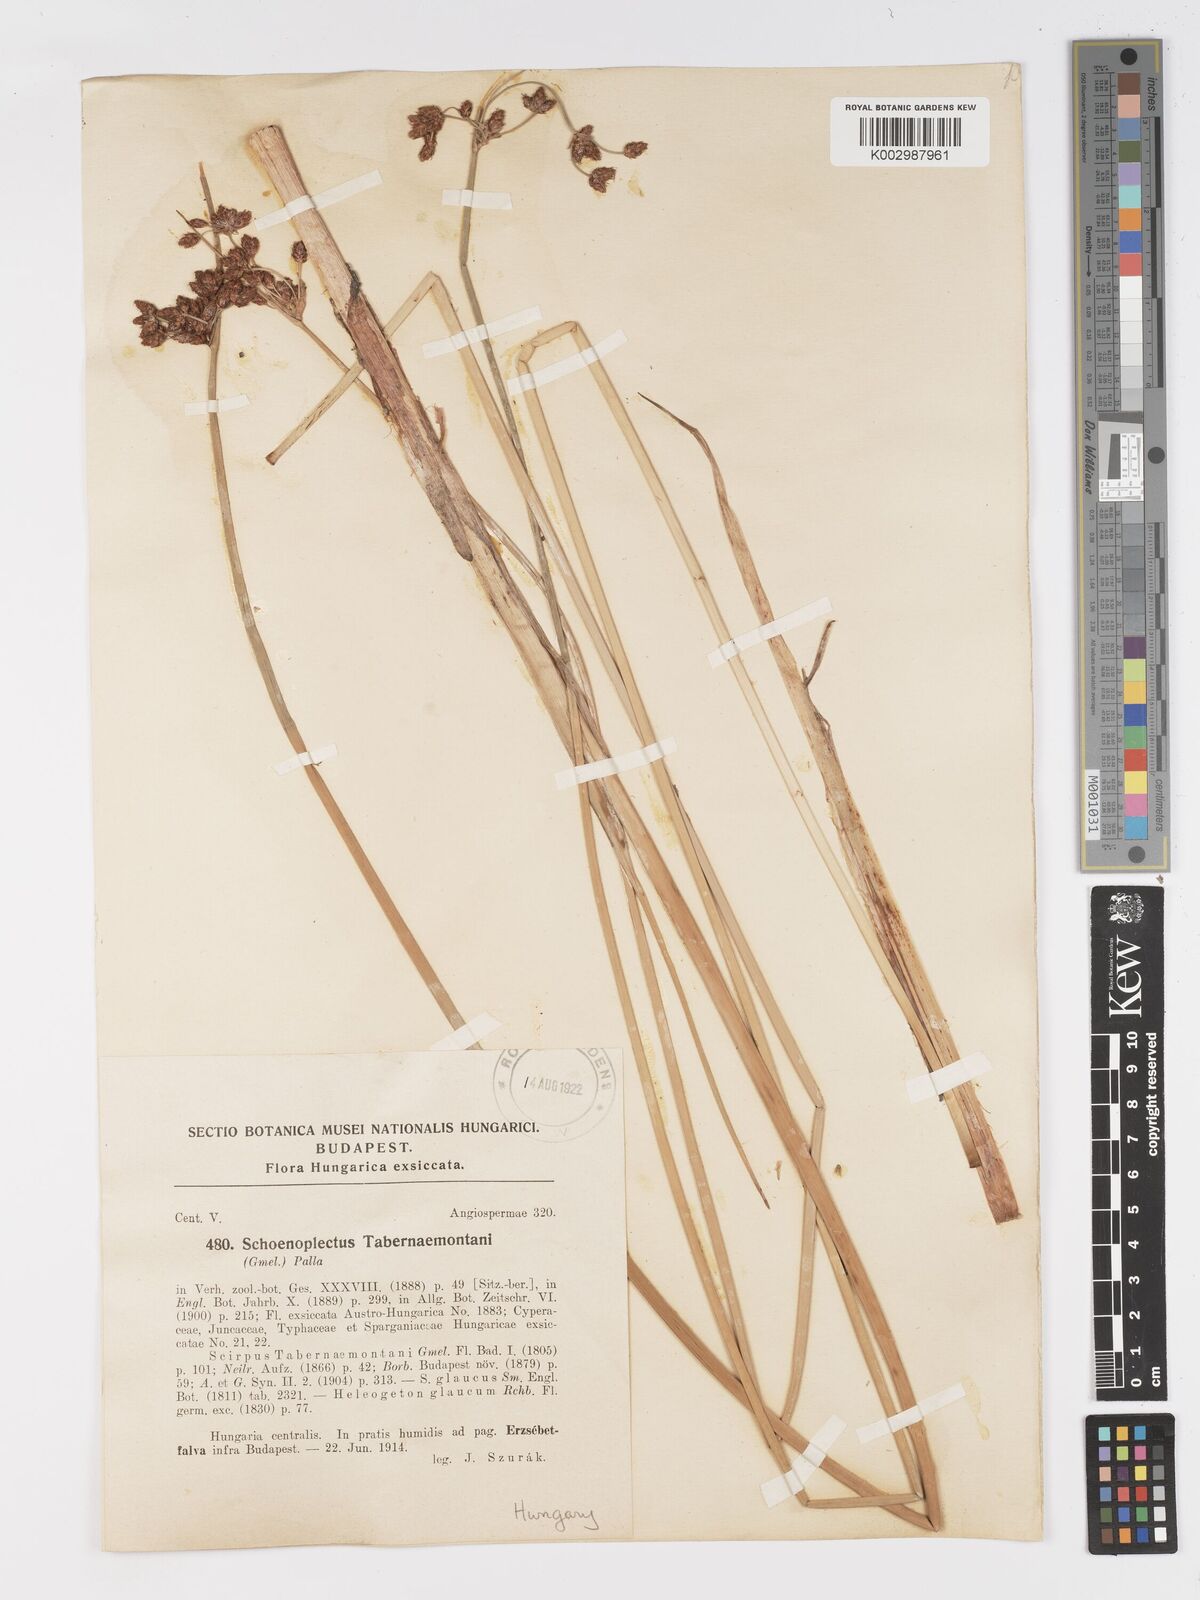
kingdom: Plantae
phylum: Tracheophyta
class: Liliopsida
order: Poales
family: Cyperaceae
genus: Schoenoplectus
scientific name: Schoenoplectus tabernaemontani
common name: Grey club-rush
